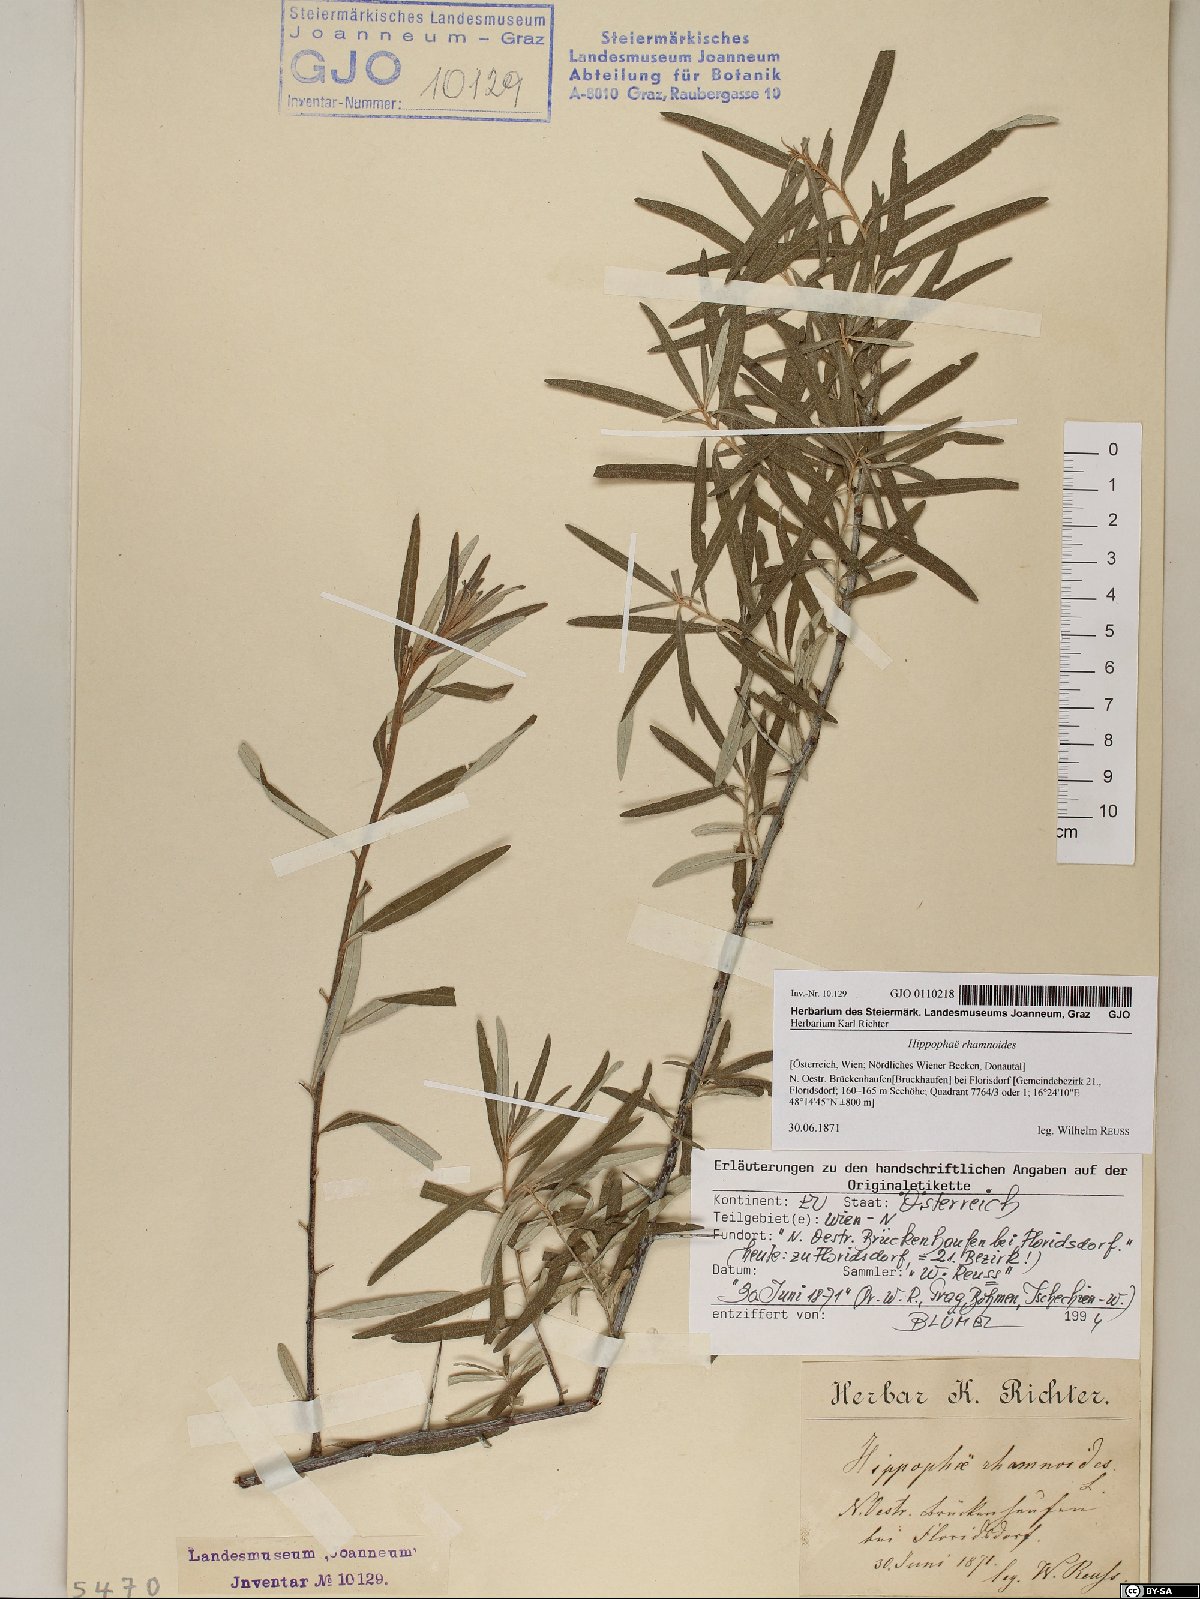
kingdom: Plantae
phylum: Tracheophyta
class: Magnoliopsida
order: Rosales
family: Elaeagnaceae
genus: Hippophae
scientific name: Hippophae rhamnoides
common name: Sea-buckthorn
